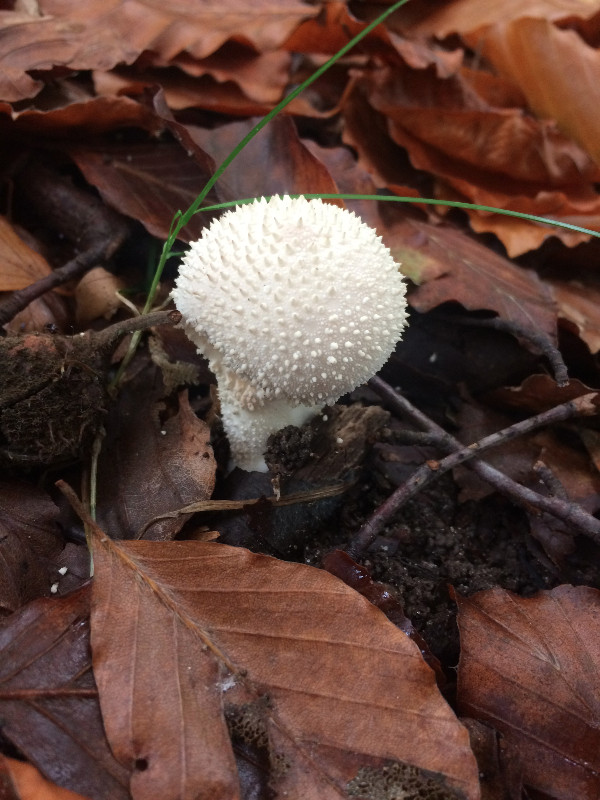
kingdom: Fungi
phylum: Basidiomycota
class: Agaricomycetes
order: Agaricales
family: Lycoperdaceae
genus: Lycoperdon
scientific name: Lycoperdon perlatum
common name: krystal-støvbold
